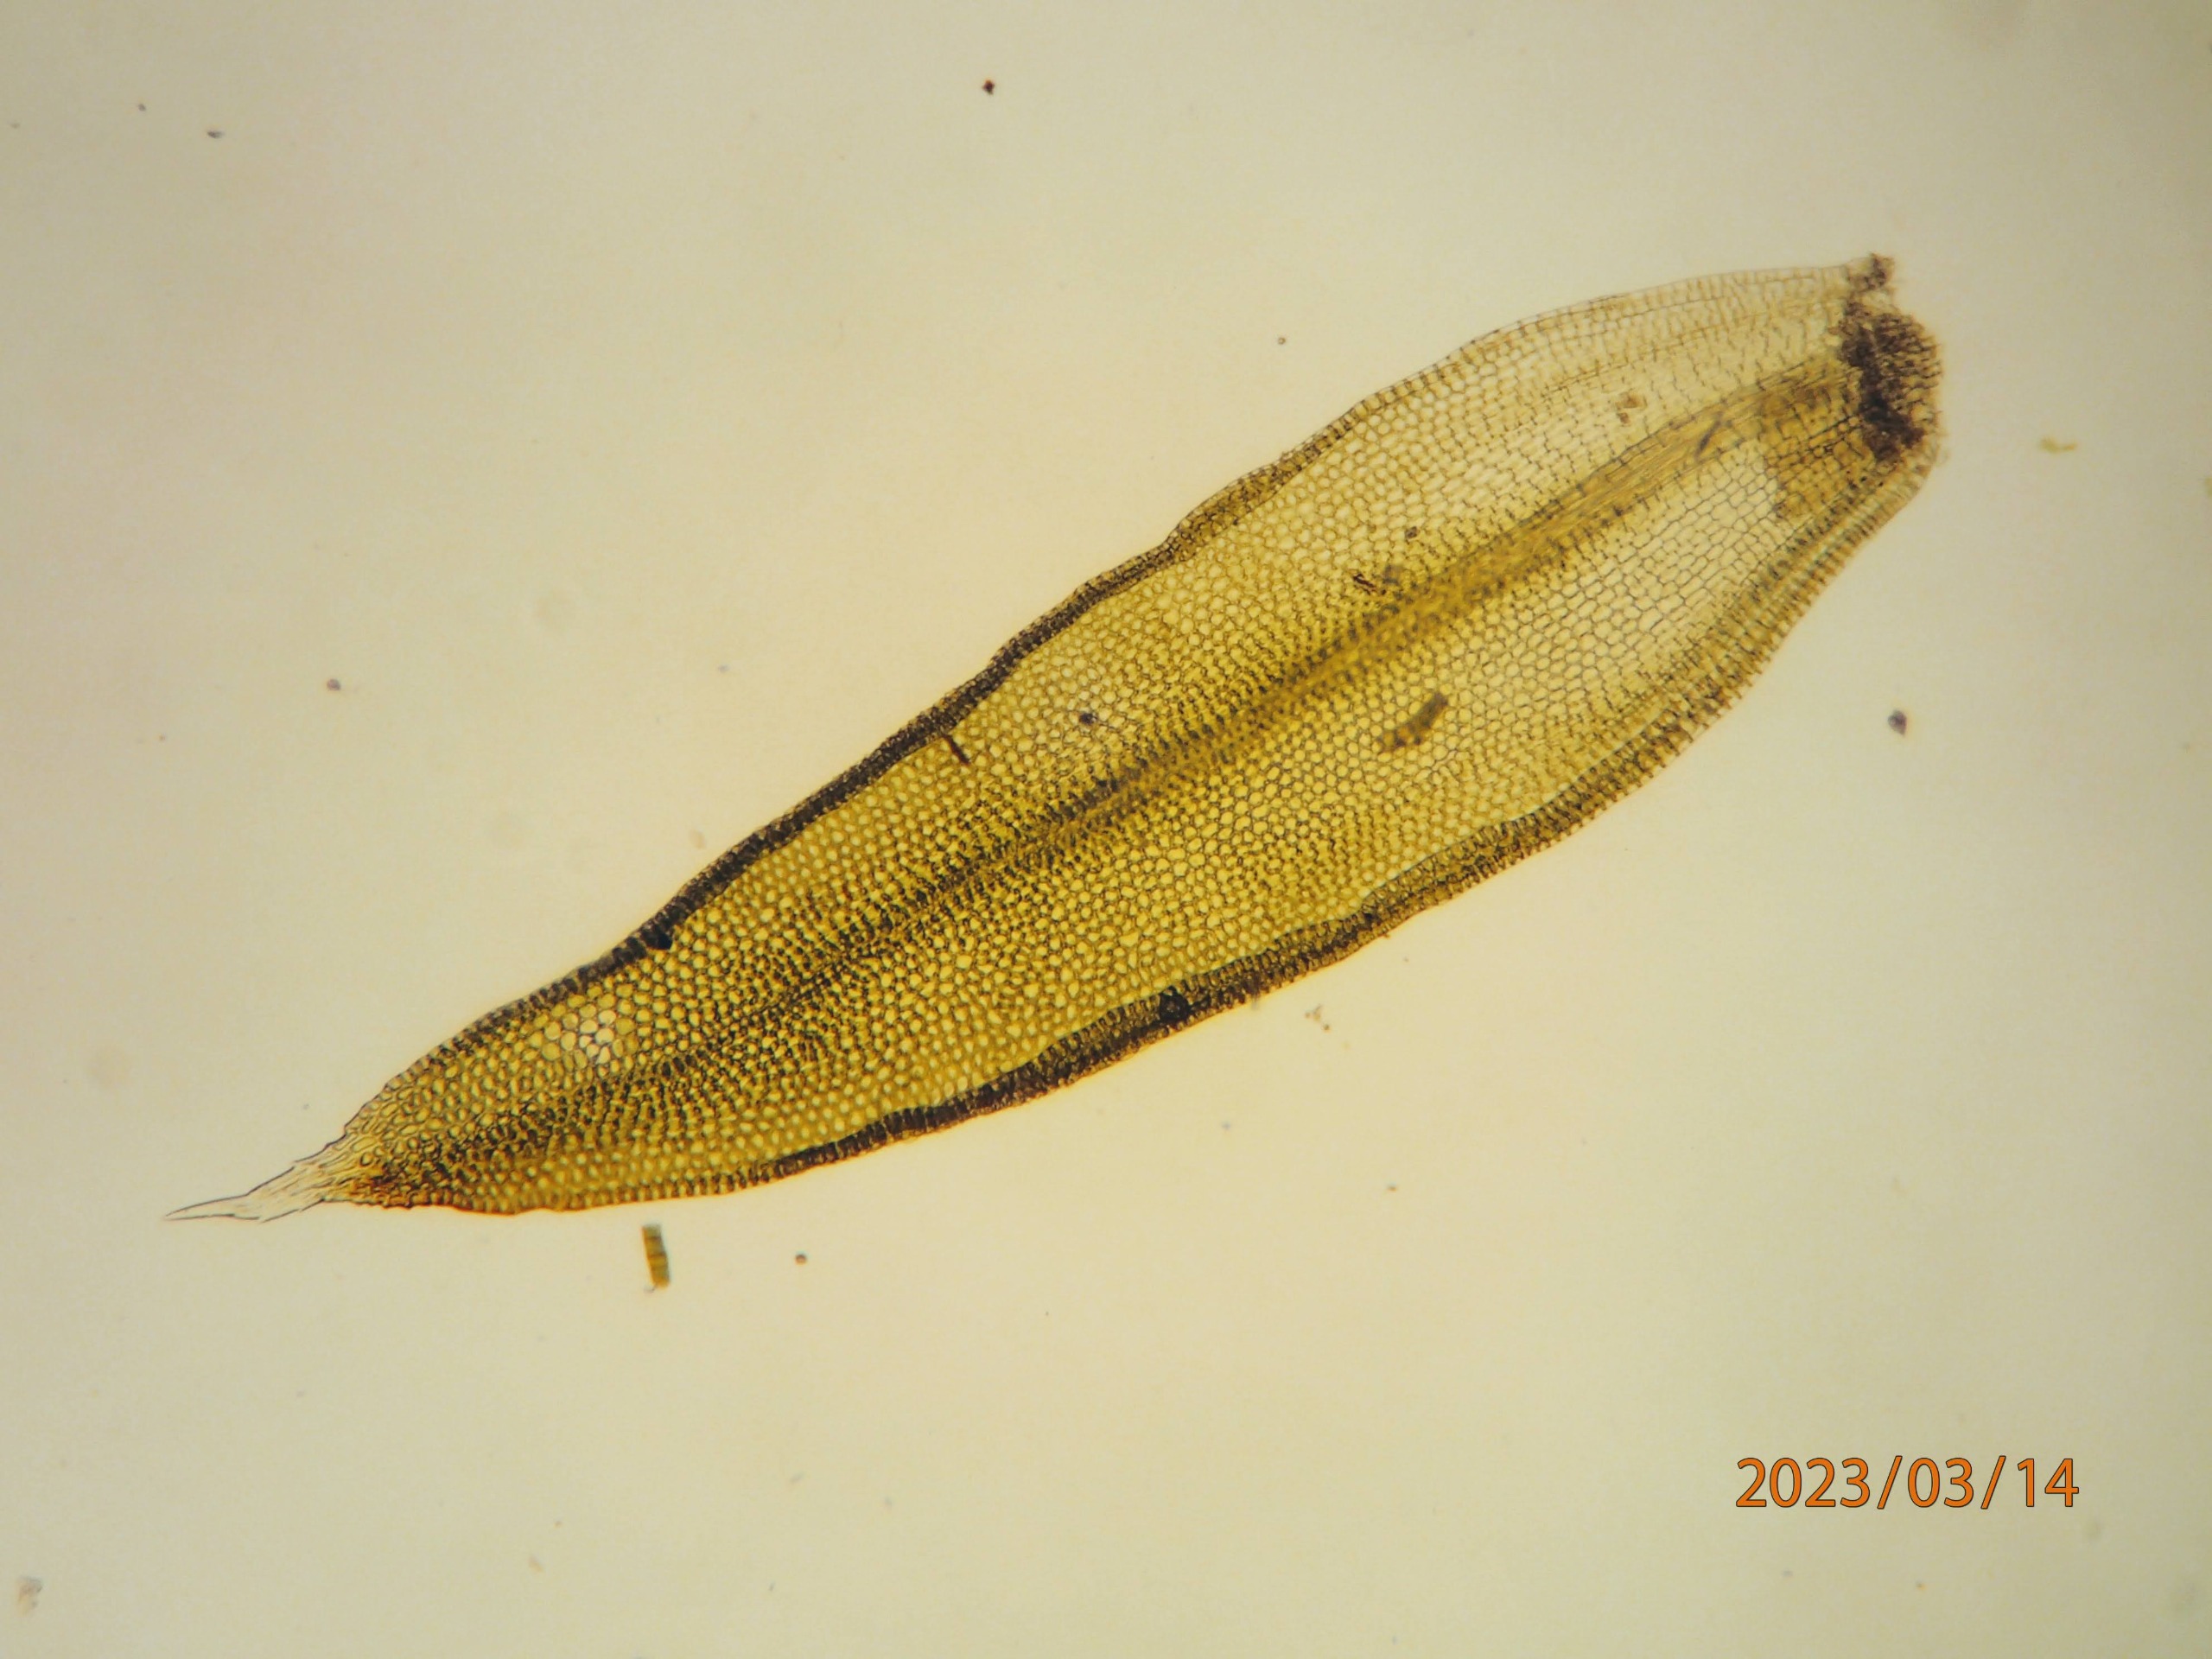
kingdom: Plantae
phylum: Bryophyta
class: Bryopsida
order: Orthotrichales
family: Orthotrichaceae
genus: Orthotrichum
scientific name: Orthotrichum diaphanum
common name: Hårspidset furehætte
